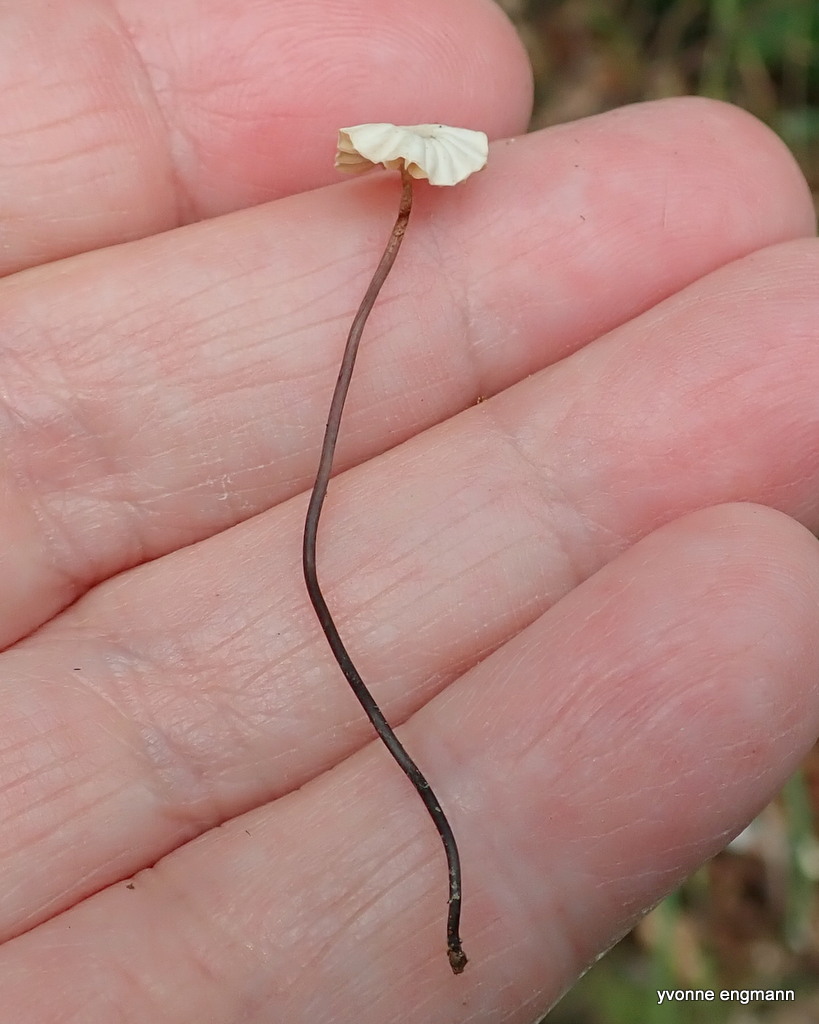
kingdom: Fungi
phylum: Basidiomycota
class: Agaricomycetes
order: Agaricales
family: Marasmiaceae
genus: Marasmius
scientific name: Marasmius rotula
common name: hjul-bruskhat
